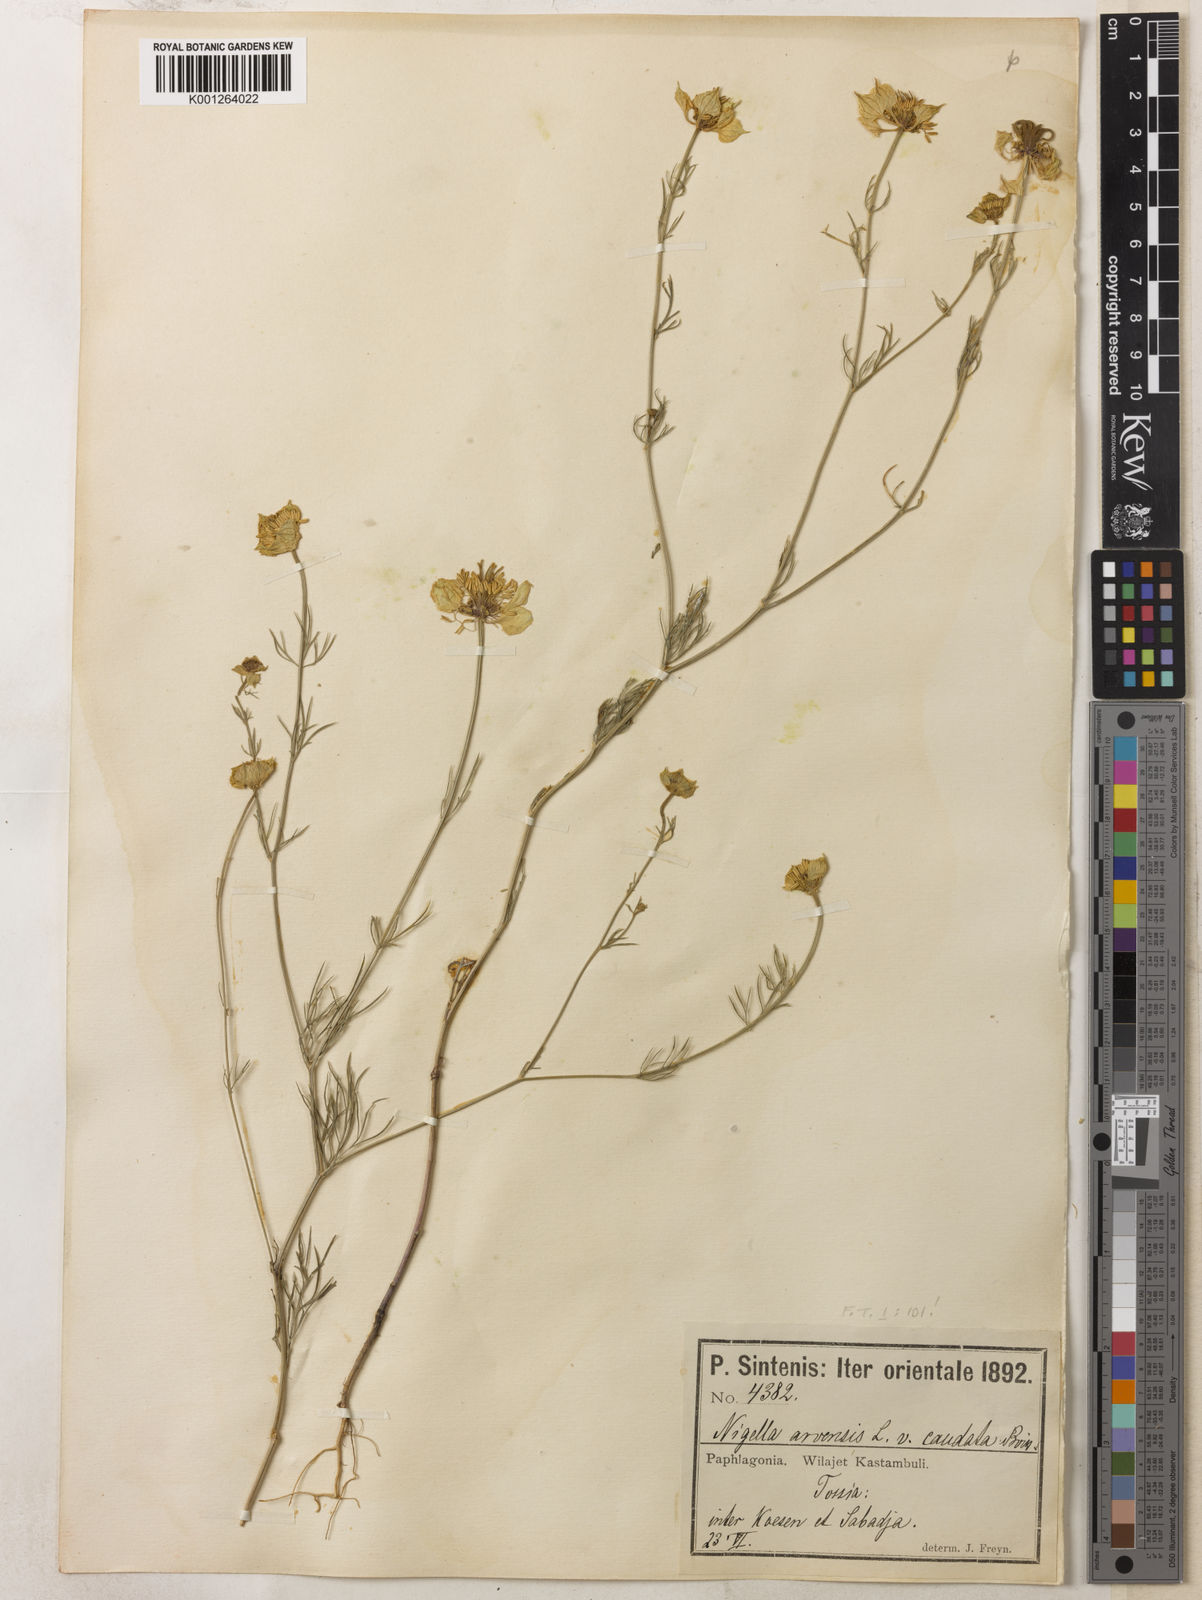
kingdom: Plantae
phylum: Tracheophyta
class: Magnoliopsida
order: Ranunculales
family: Ranunculaceae
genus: Nigella
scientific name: Nigella arvensis
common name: Wild fennel-flower
